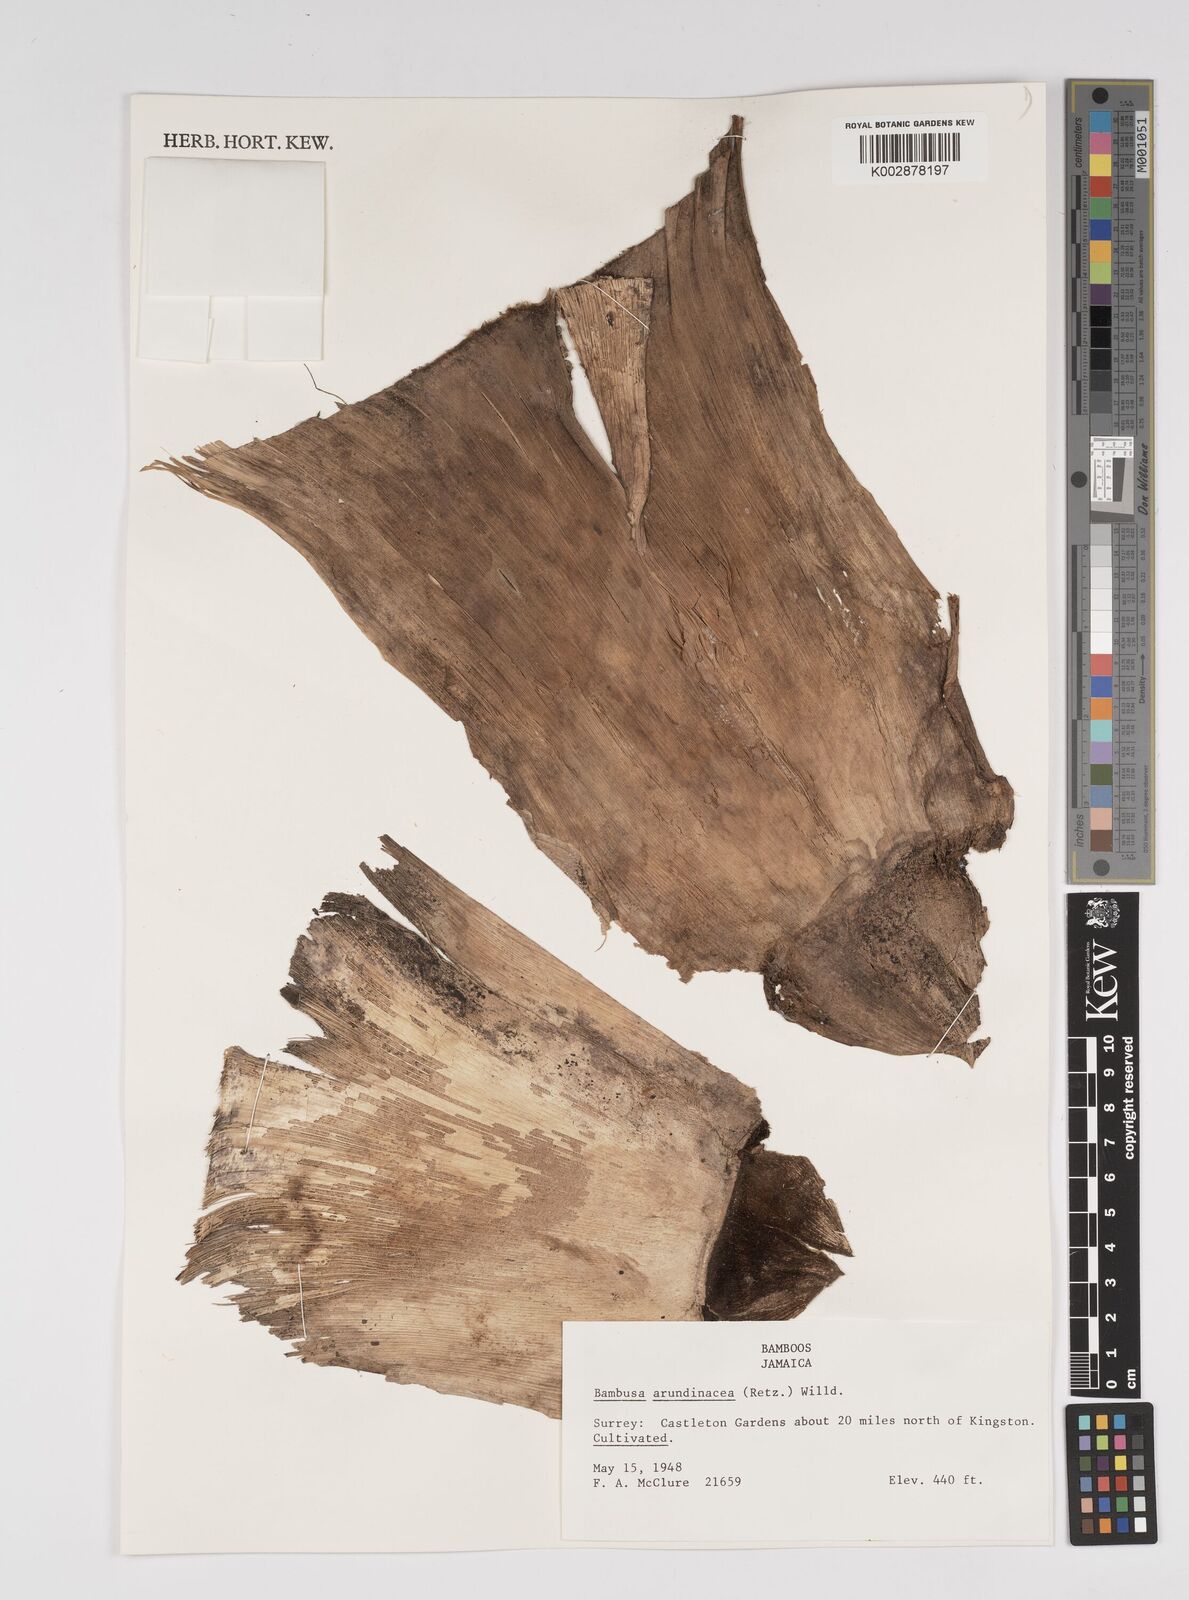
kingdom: Plantae
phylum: Tracheophyta
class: Liliopsida
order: Poales
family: Poaceae
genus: Bambusa
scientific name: Bambusa bambos
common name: Indian thorny bamboo
